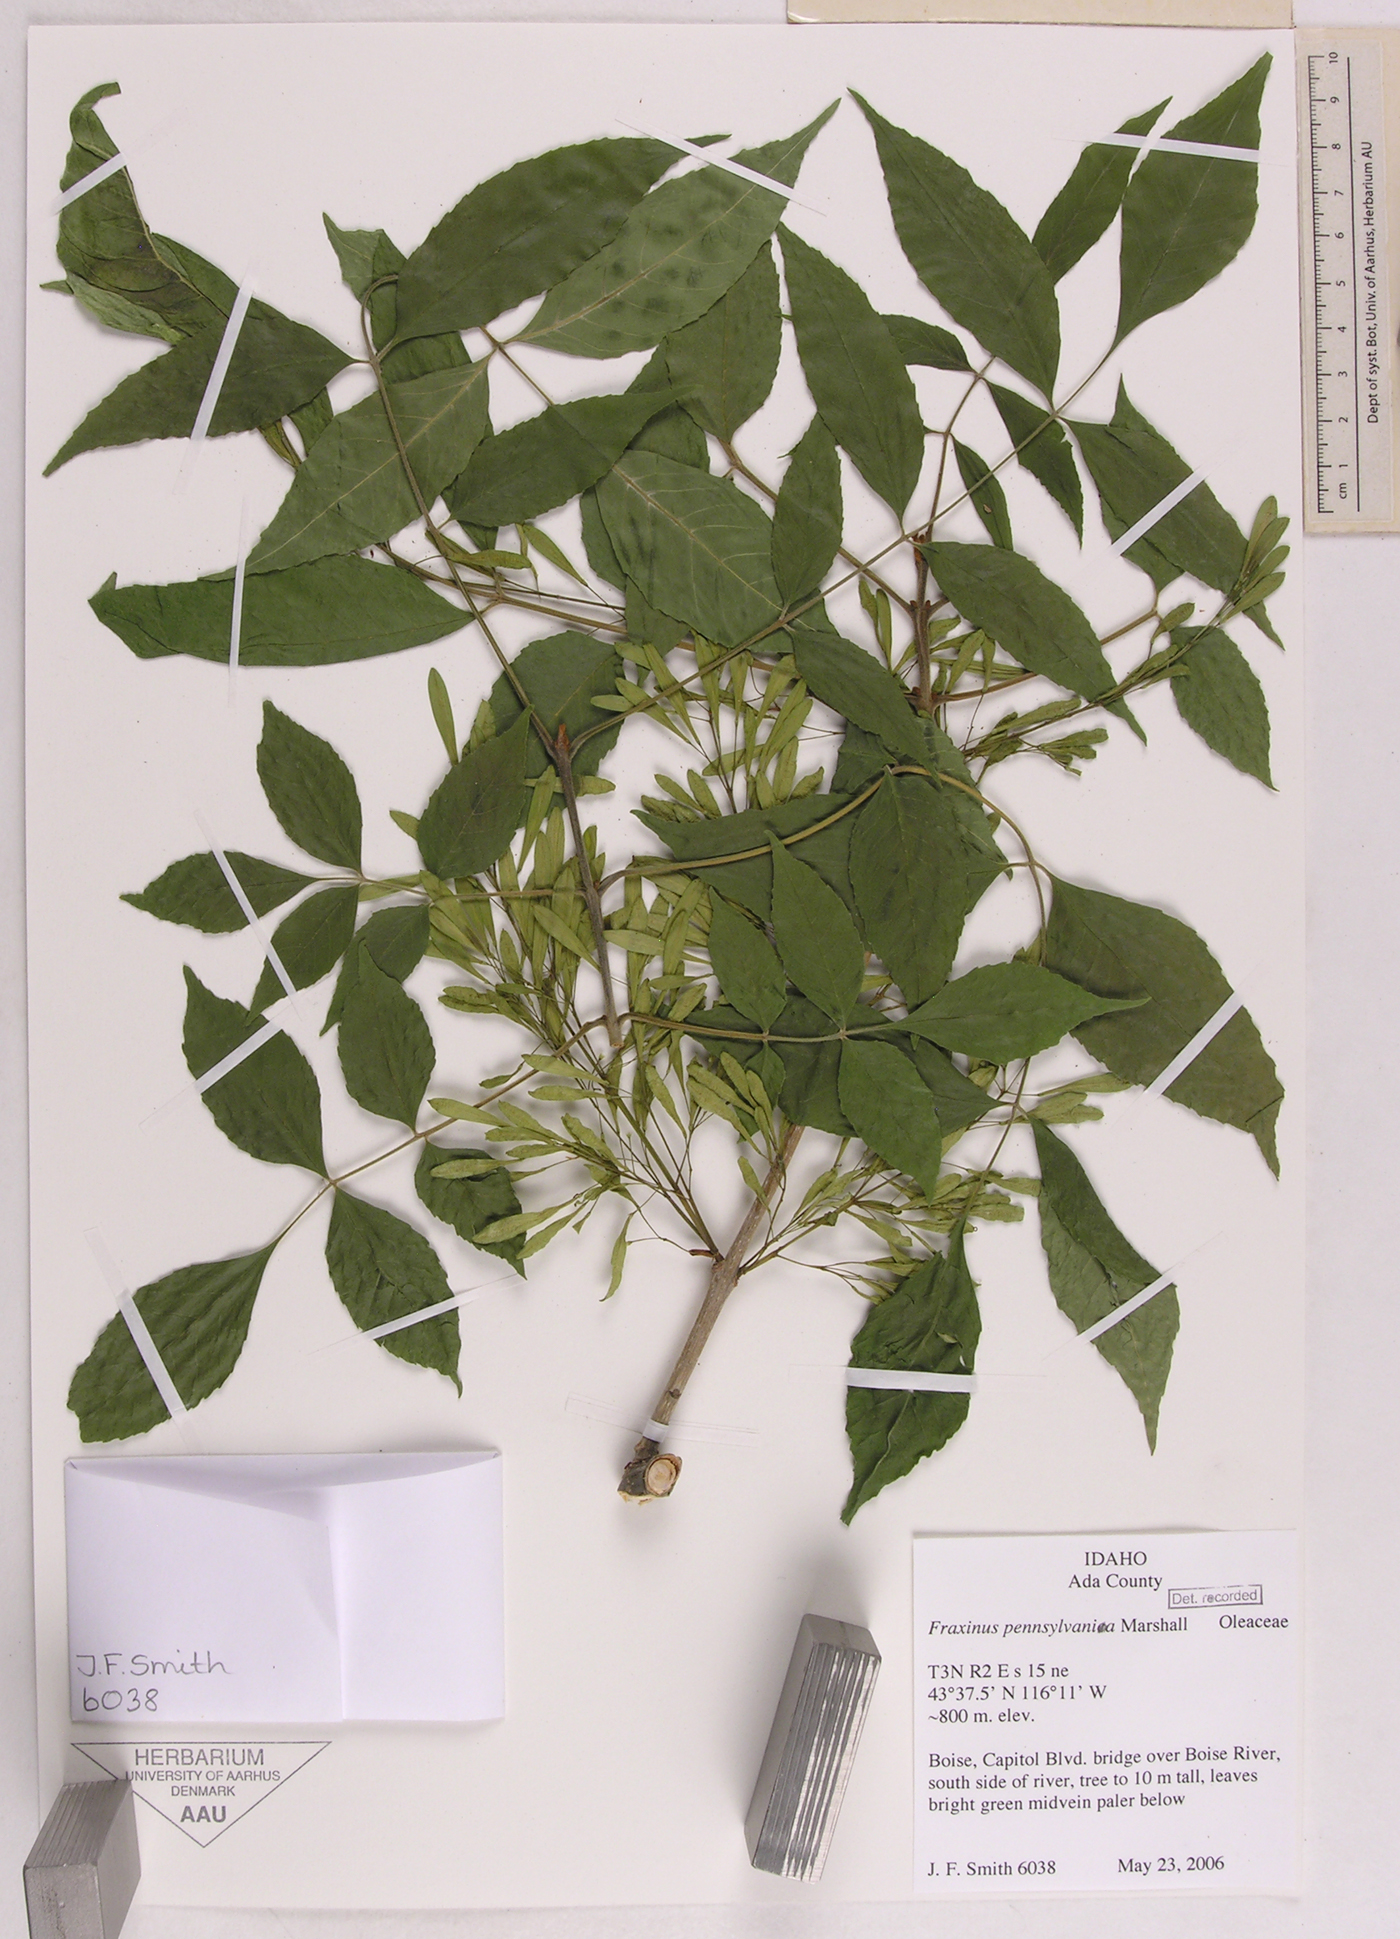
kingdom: Plantae
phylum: Tracheophyta
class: Magnoliopsida
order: Lamiales
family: Oleaceae
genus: Fraxinus
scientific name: Fraxinus pennsylvania
